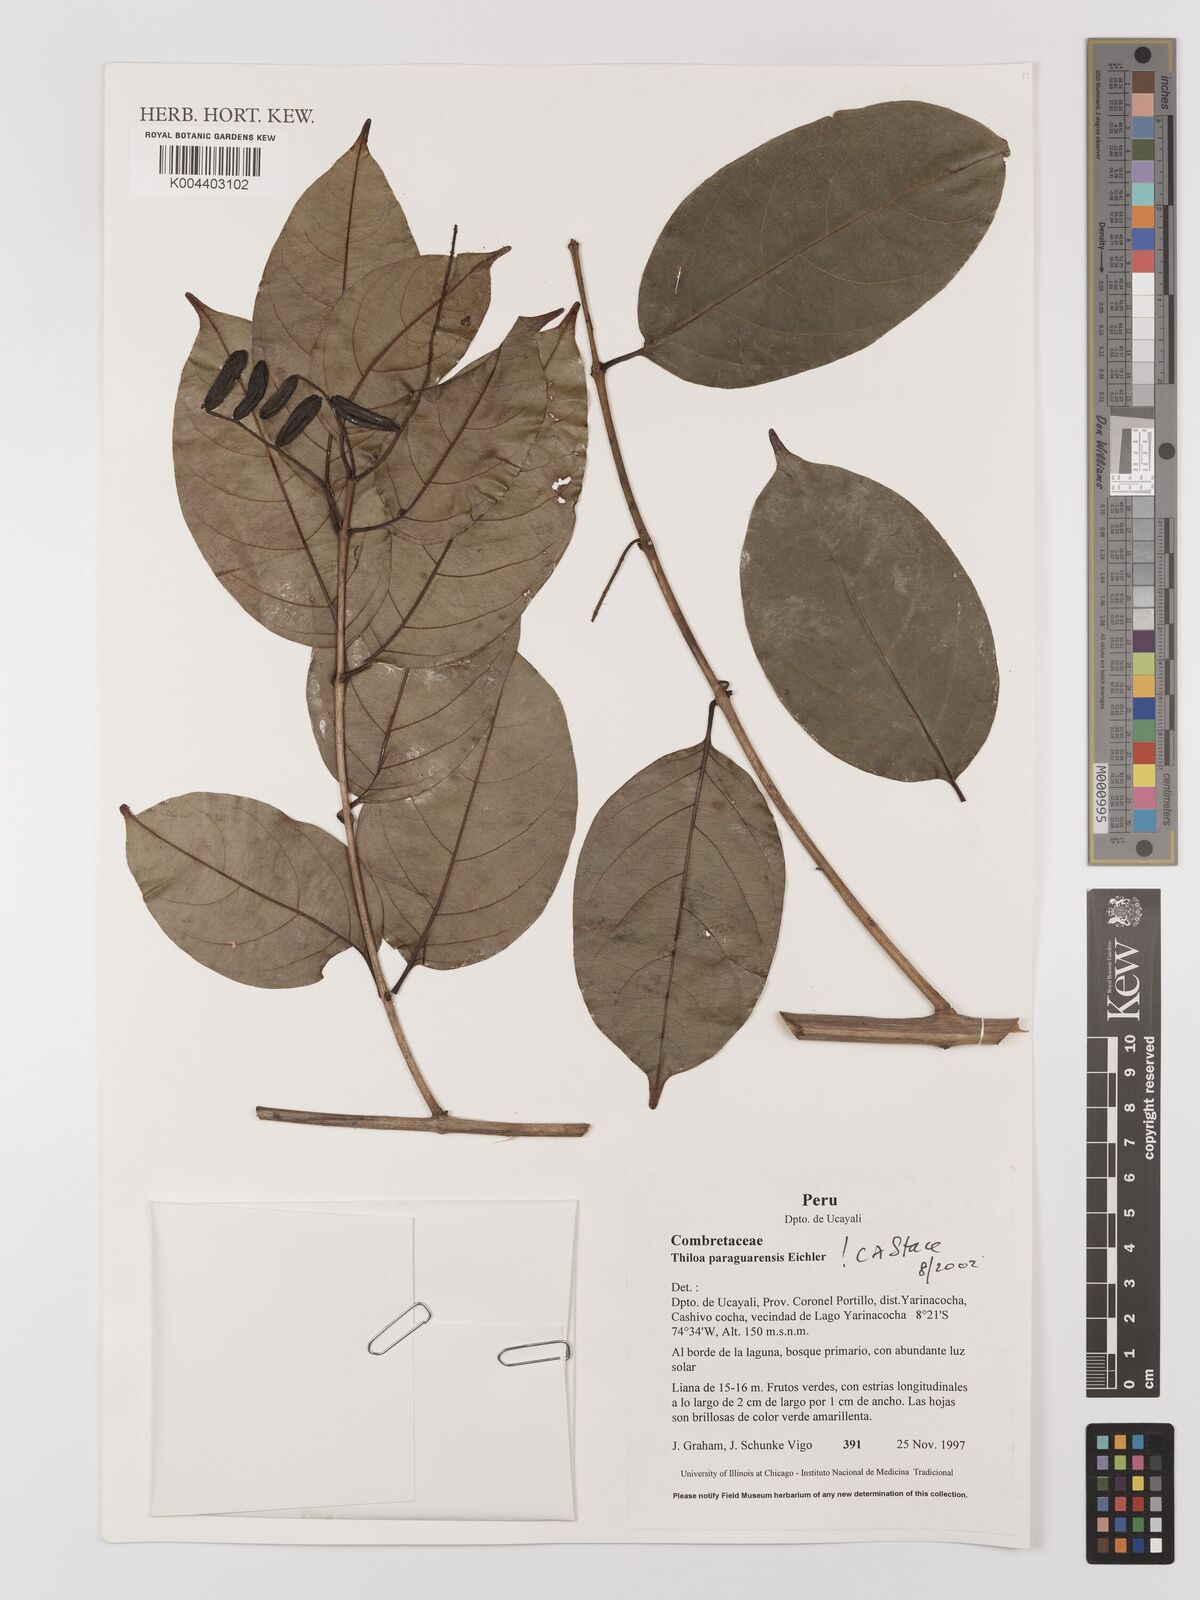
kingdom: Plantae
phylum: Tracheophyta
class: Magnoliopsida
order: Myrtales
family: Combretaceae
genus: Combretum
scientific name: Combretum paraguariense
